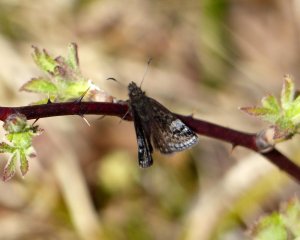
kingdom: Animalia
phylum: Arthropoda
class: Insecta
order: Lepidoptera
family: Hesperiidae
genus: Erynnis
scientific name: Erynnis icelus
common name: Dreamy Duskywing
